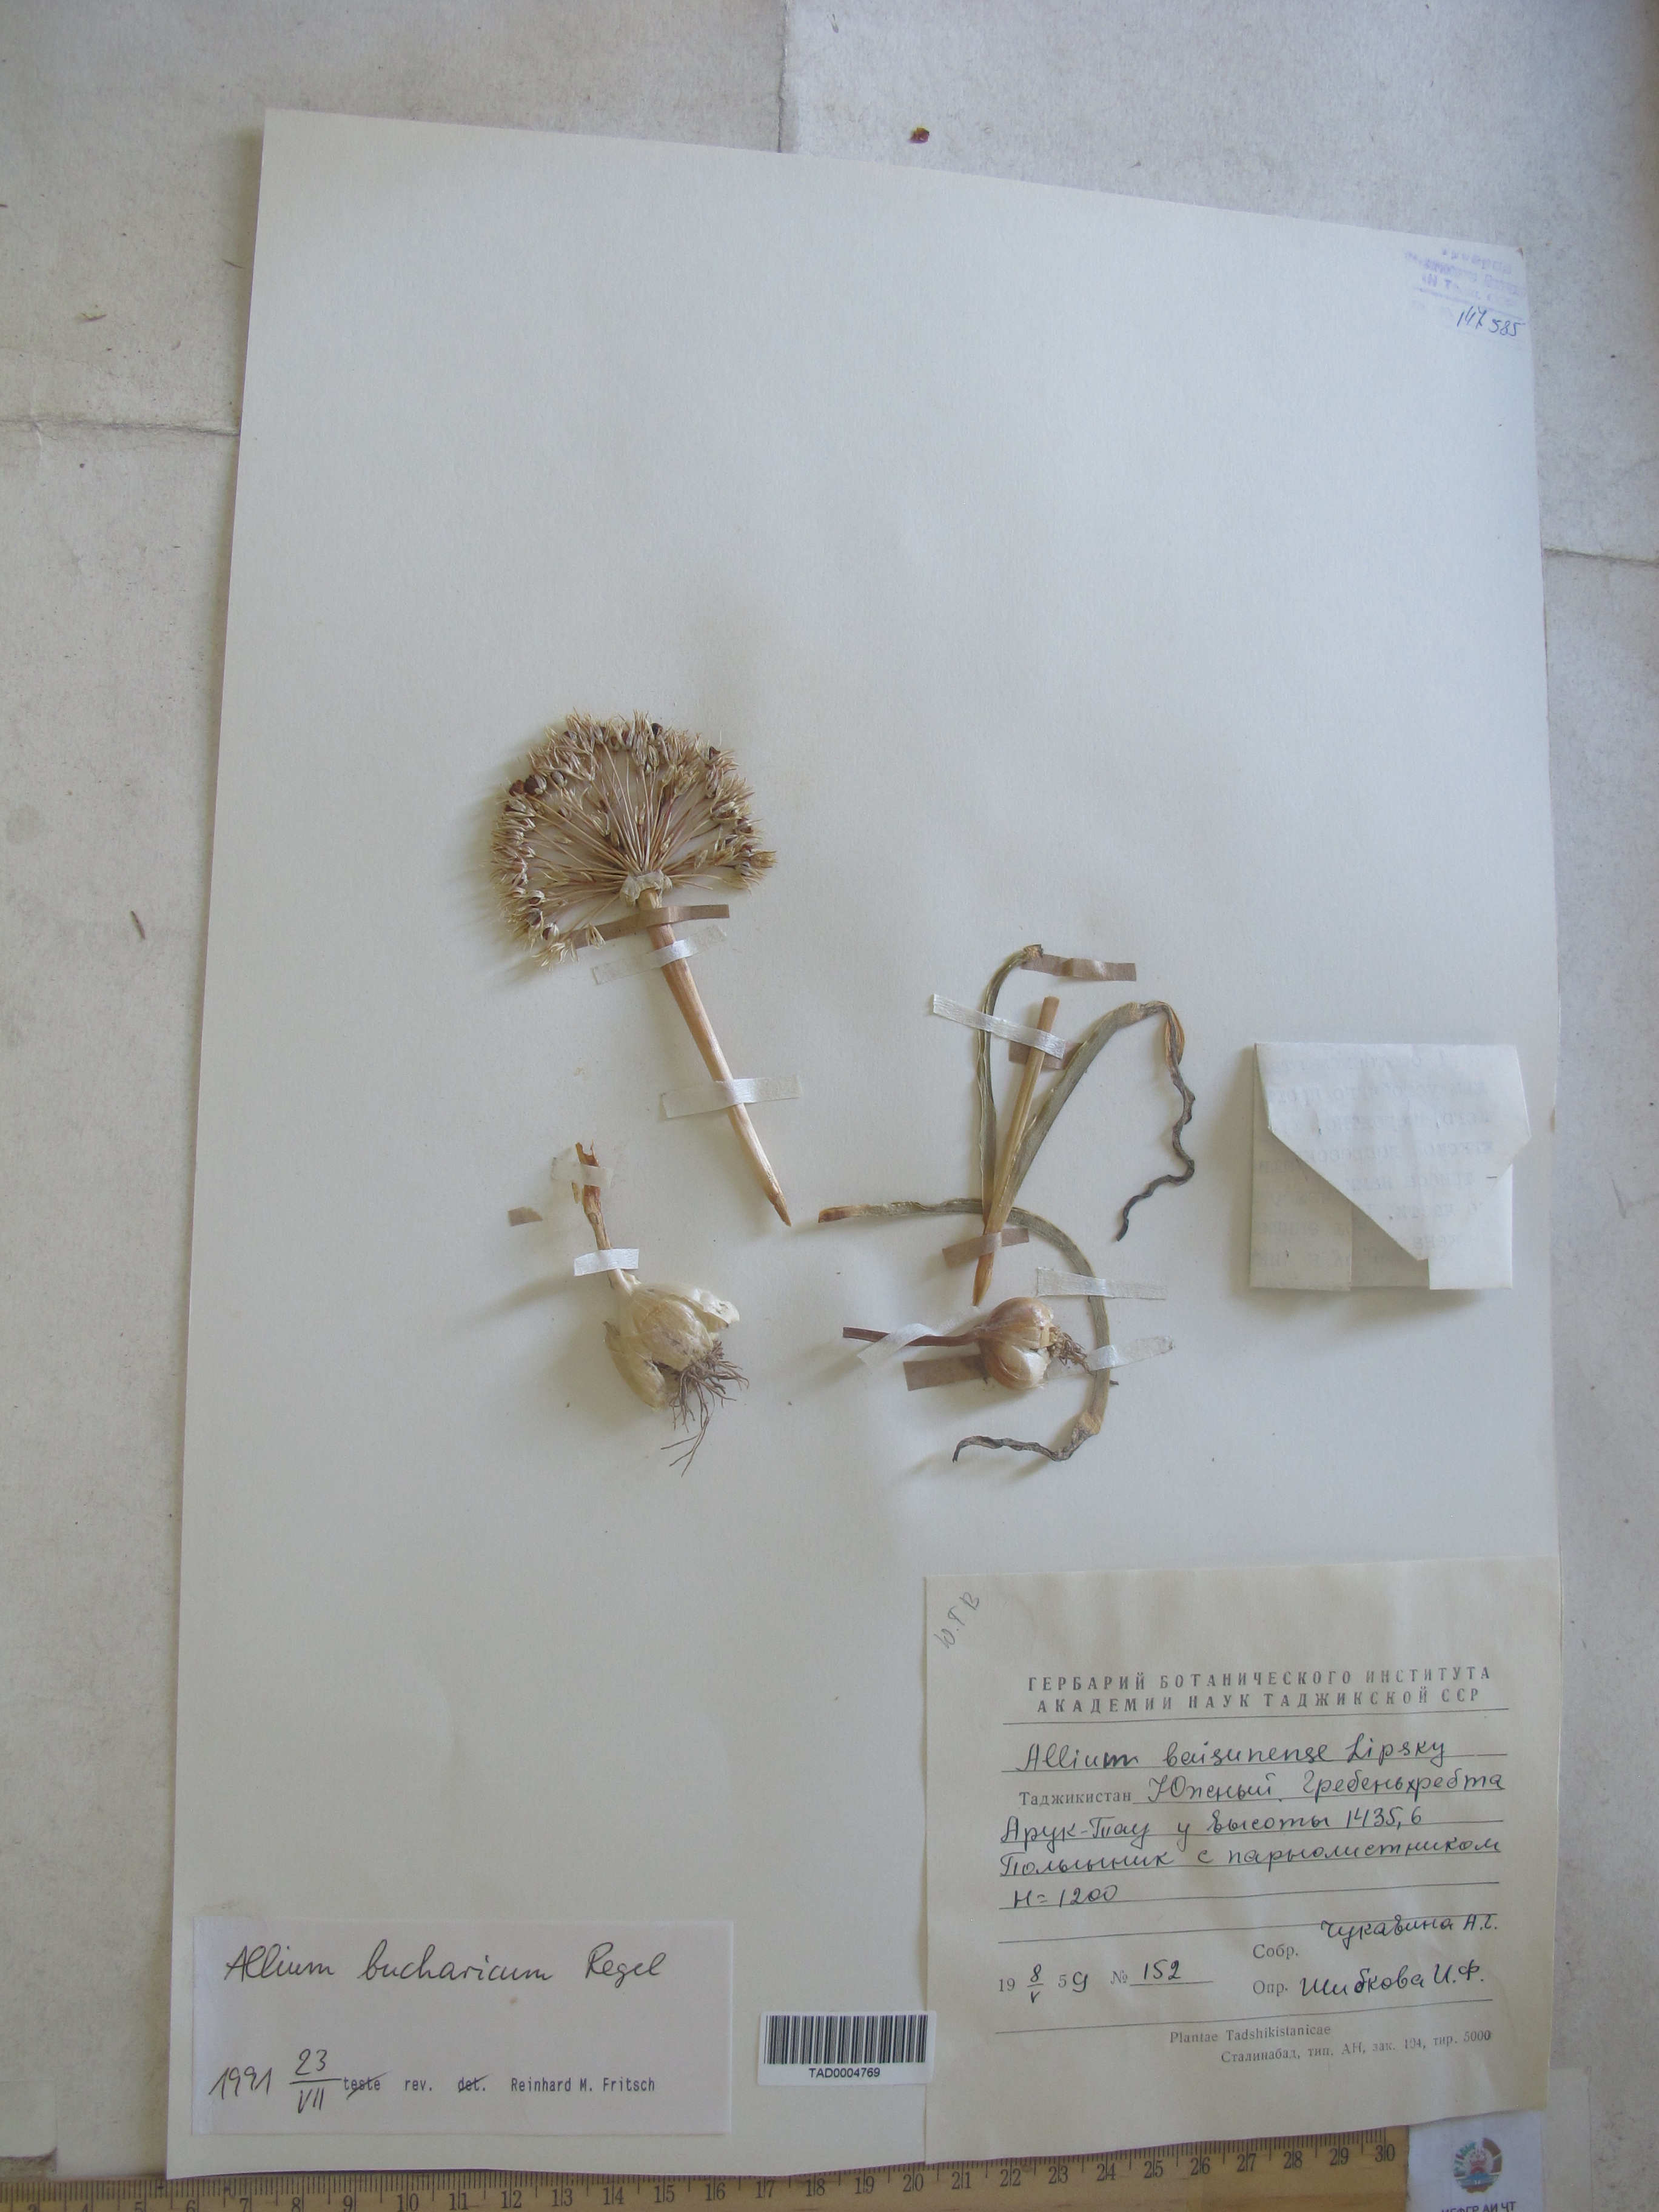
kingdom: Plantae
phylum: Tracheophyta
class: Liliopsida
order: Asparagales
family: Amaryllidaceae
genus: Allium
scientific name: Allium bucharicum
